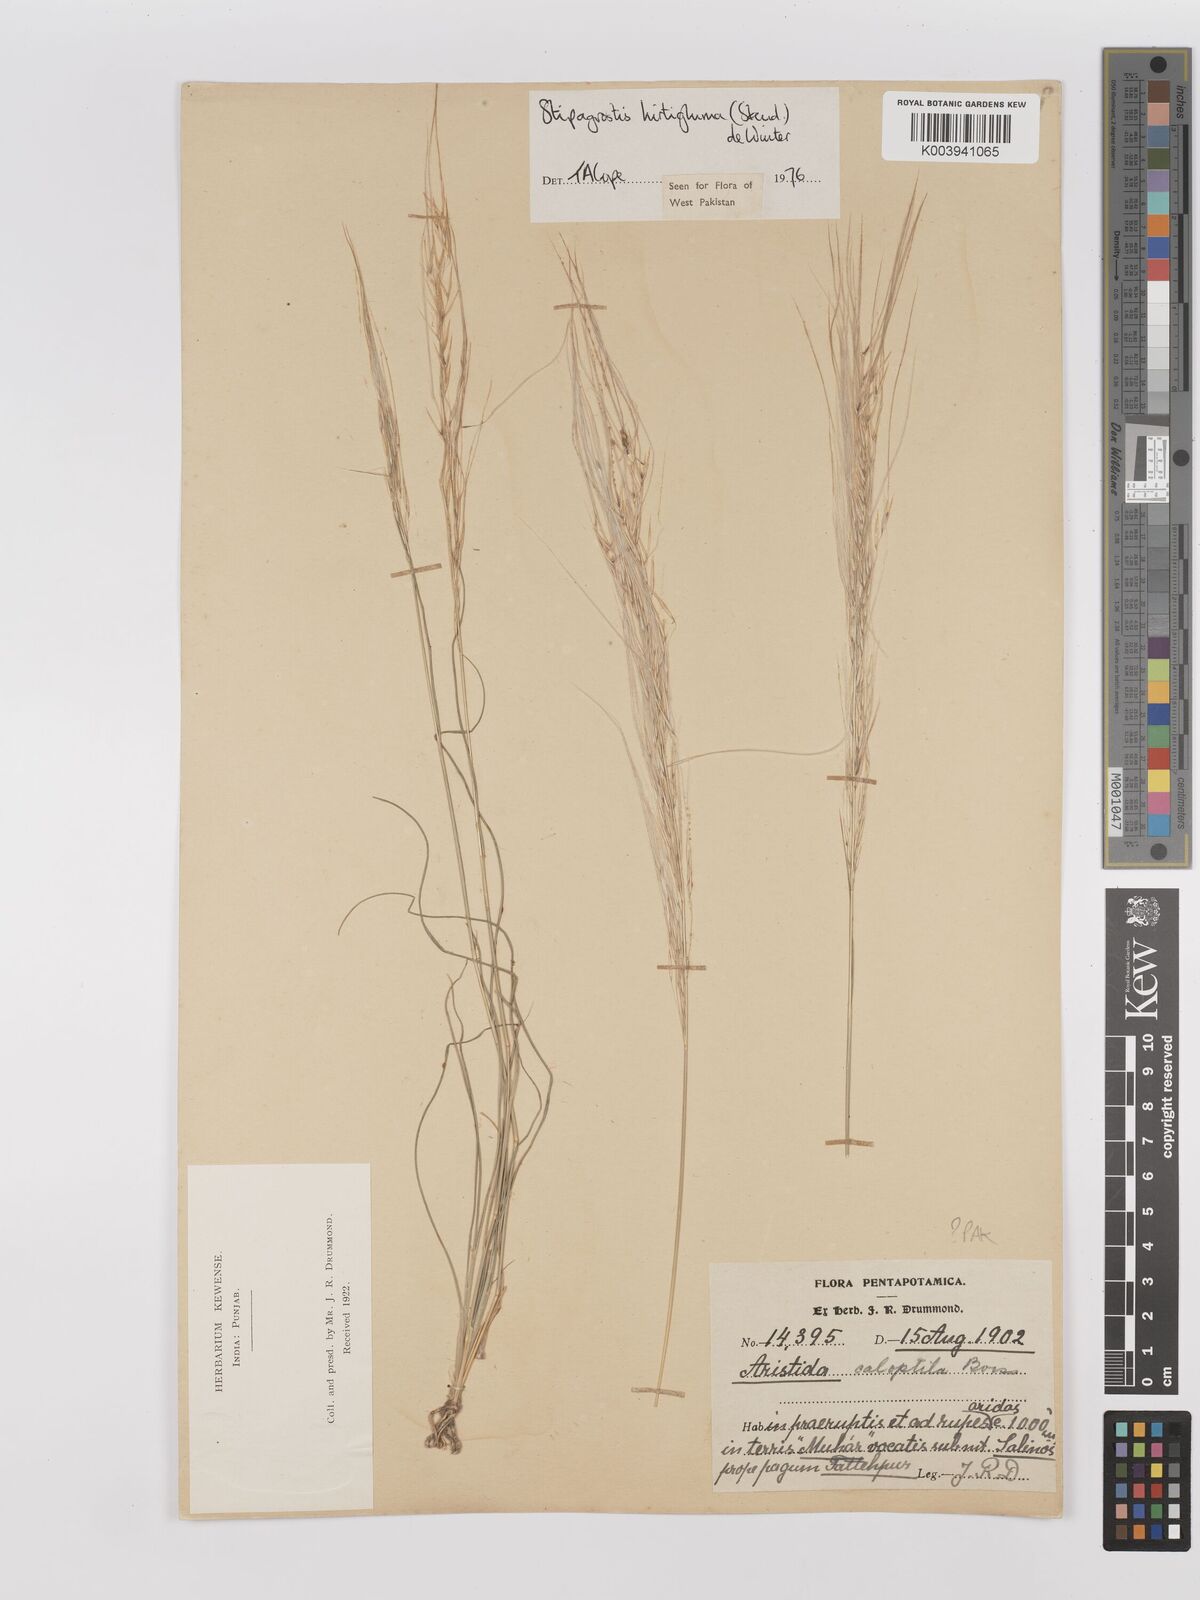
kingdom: Plantae
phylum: Tracheophyta
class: Liliopsida
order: Poales
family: Poaceae
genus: Stipagrostis
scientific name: Stipagrostis hirtigluma
